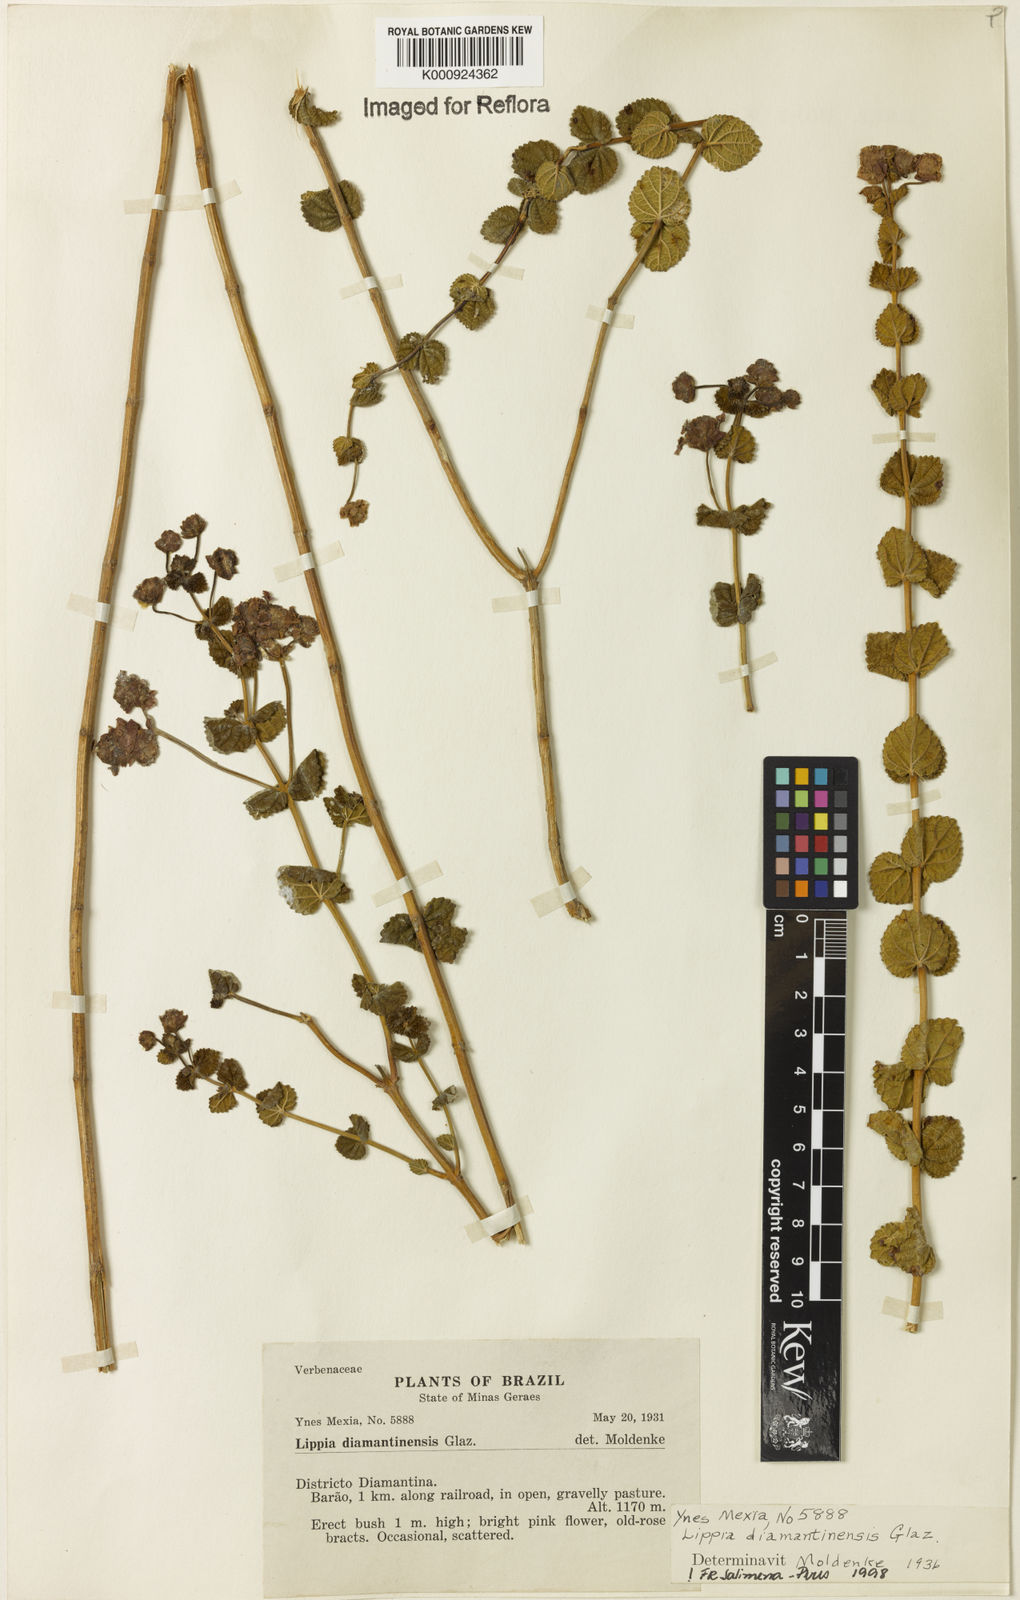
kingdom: Plantae
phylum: Tracheophyta
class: Magnoliopsida
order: Lamiales
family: Verbenaceae
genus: Lippia
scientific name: Lippia diamantinensis
